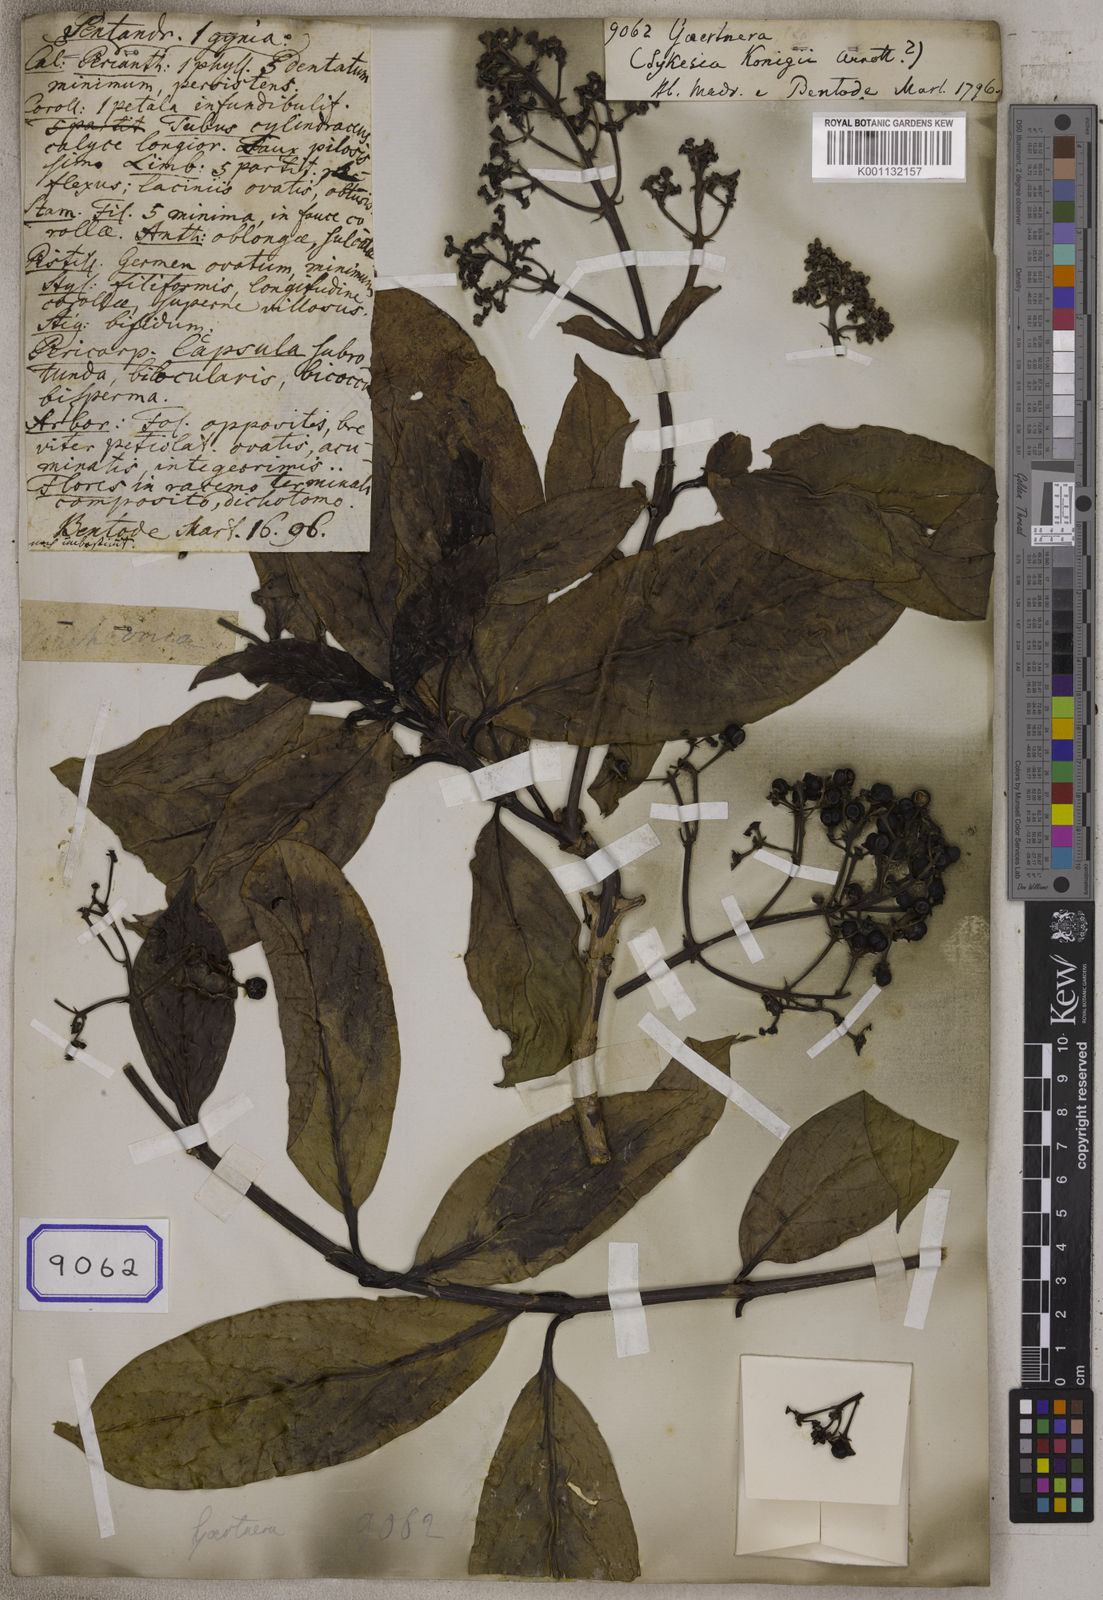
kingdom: Plantae
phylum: Tracheophyta
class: Magnoliopsida
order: Gentianales
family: Rubiaceae
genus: Gaertnera
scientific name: Gaertnera
